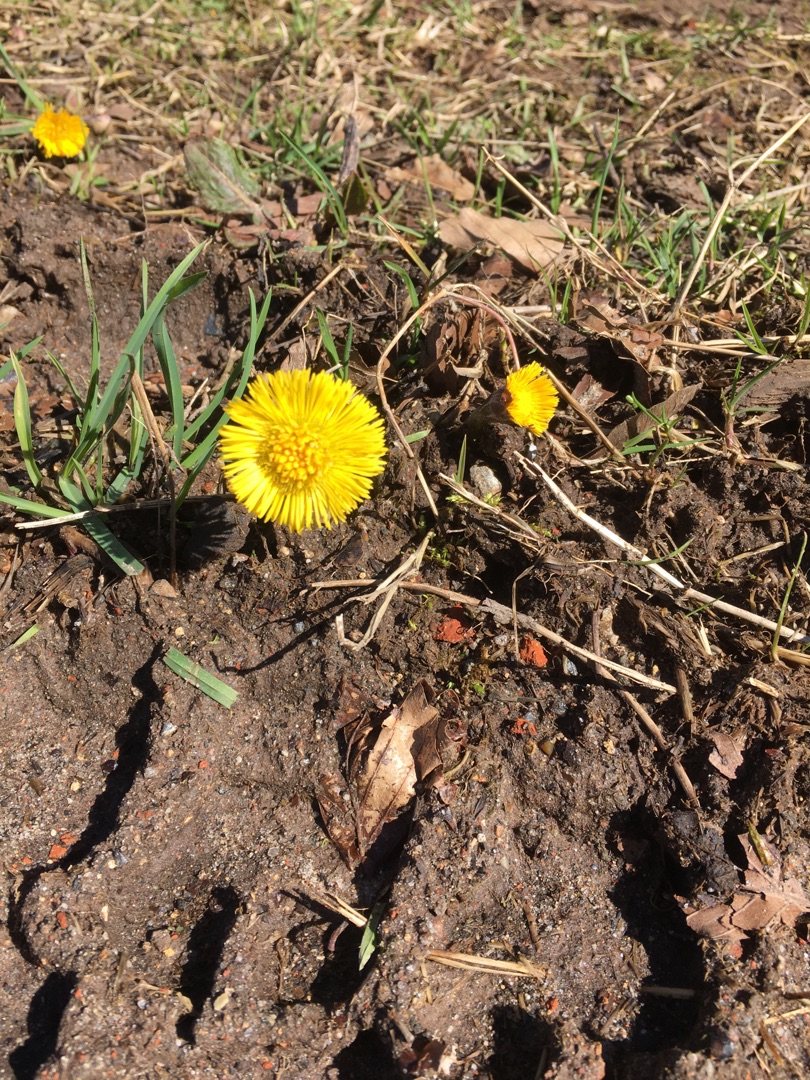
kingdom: Plantae
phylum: Tracheophyta
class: Magnoliopsida
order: Asterales
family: Asteraceae
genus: Tussilago
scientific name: Tussilago farfara
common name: Følfod
